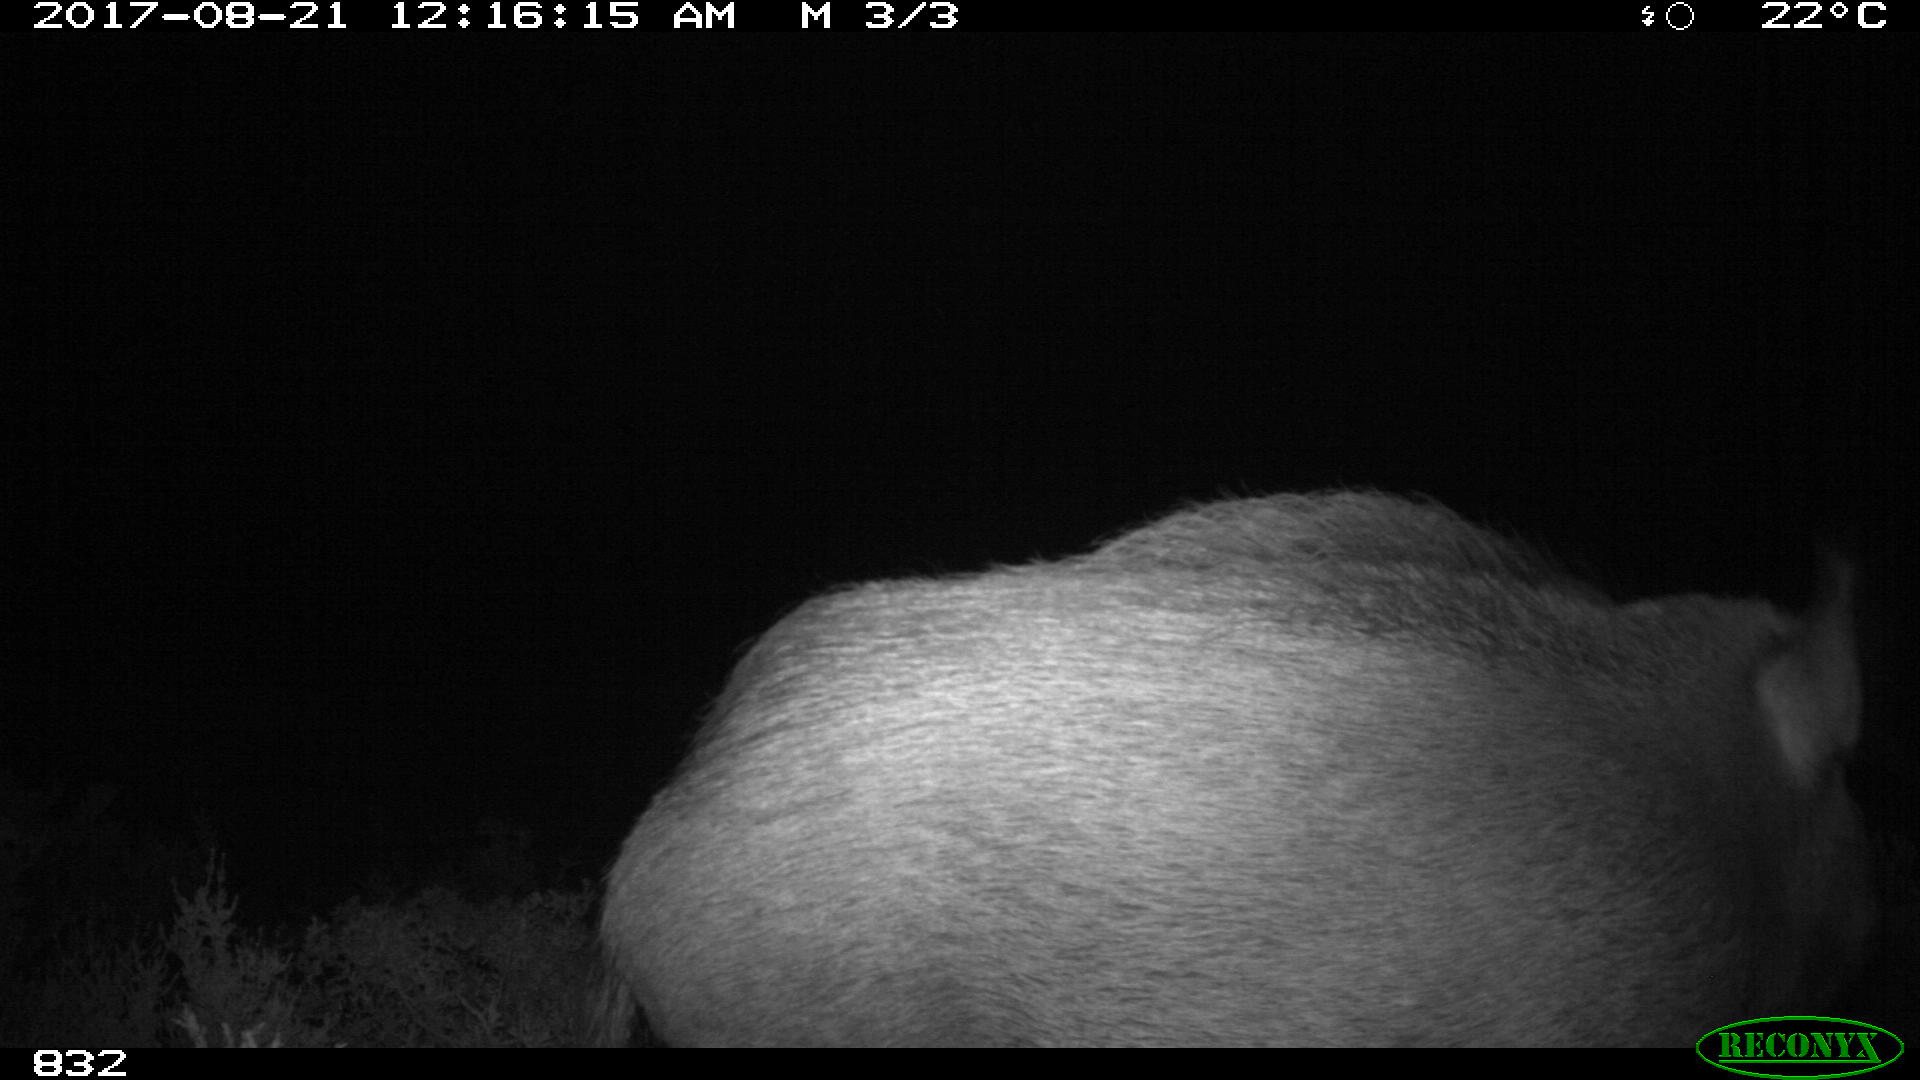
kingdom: Animalia
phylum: Chordata
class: Mammalia
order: Artiodactyla
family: Suidae
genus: Sus
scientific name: Sus scrofa
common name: Wild boar
